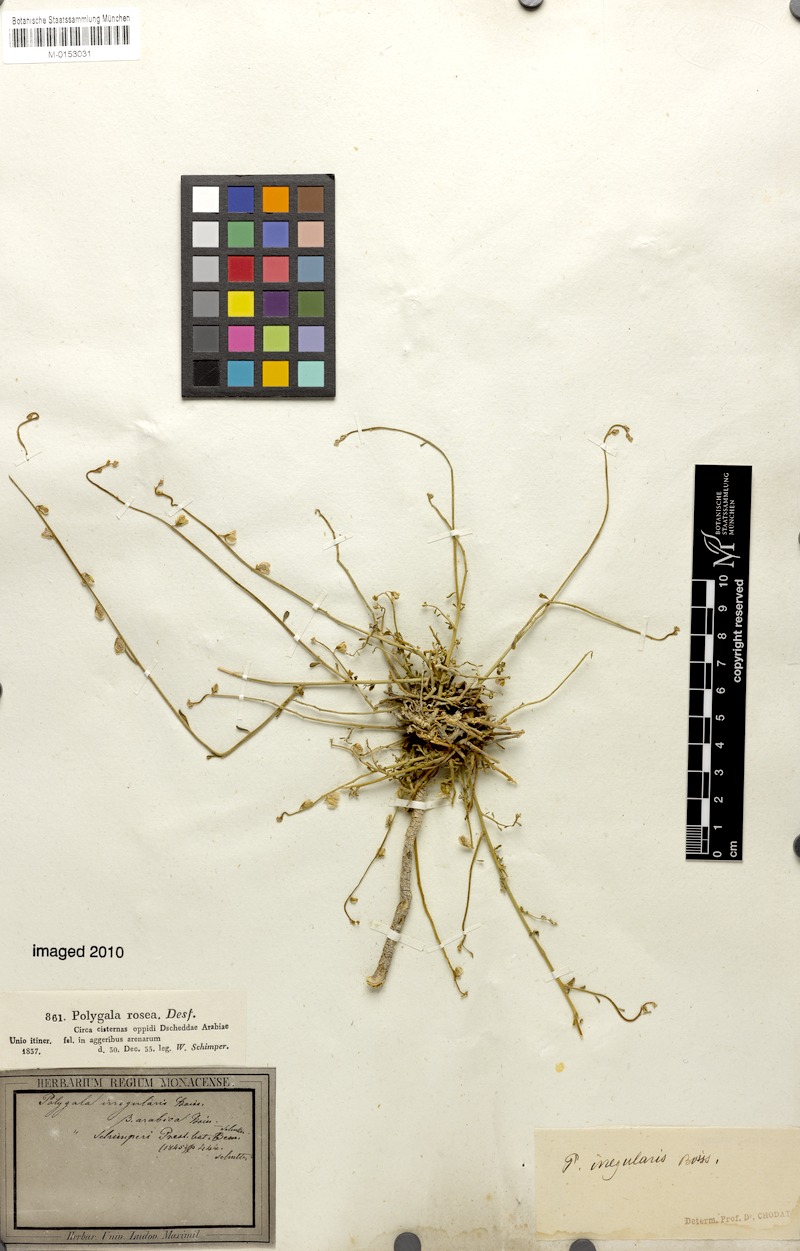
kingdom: Plantae
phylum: Tracheophyta
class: Magnoliopsida
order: Fabales
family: Polygalaceae
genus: Polygala
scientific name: Polygala irregularis
